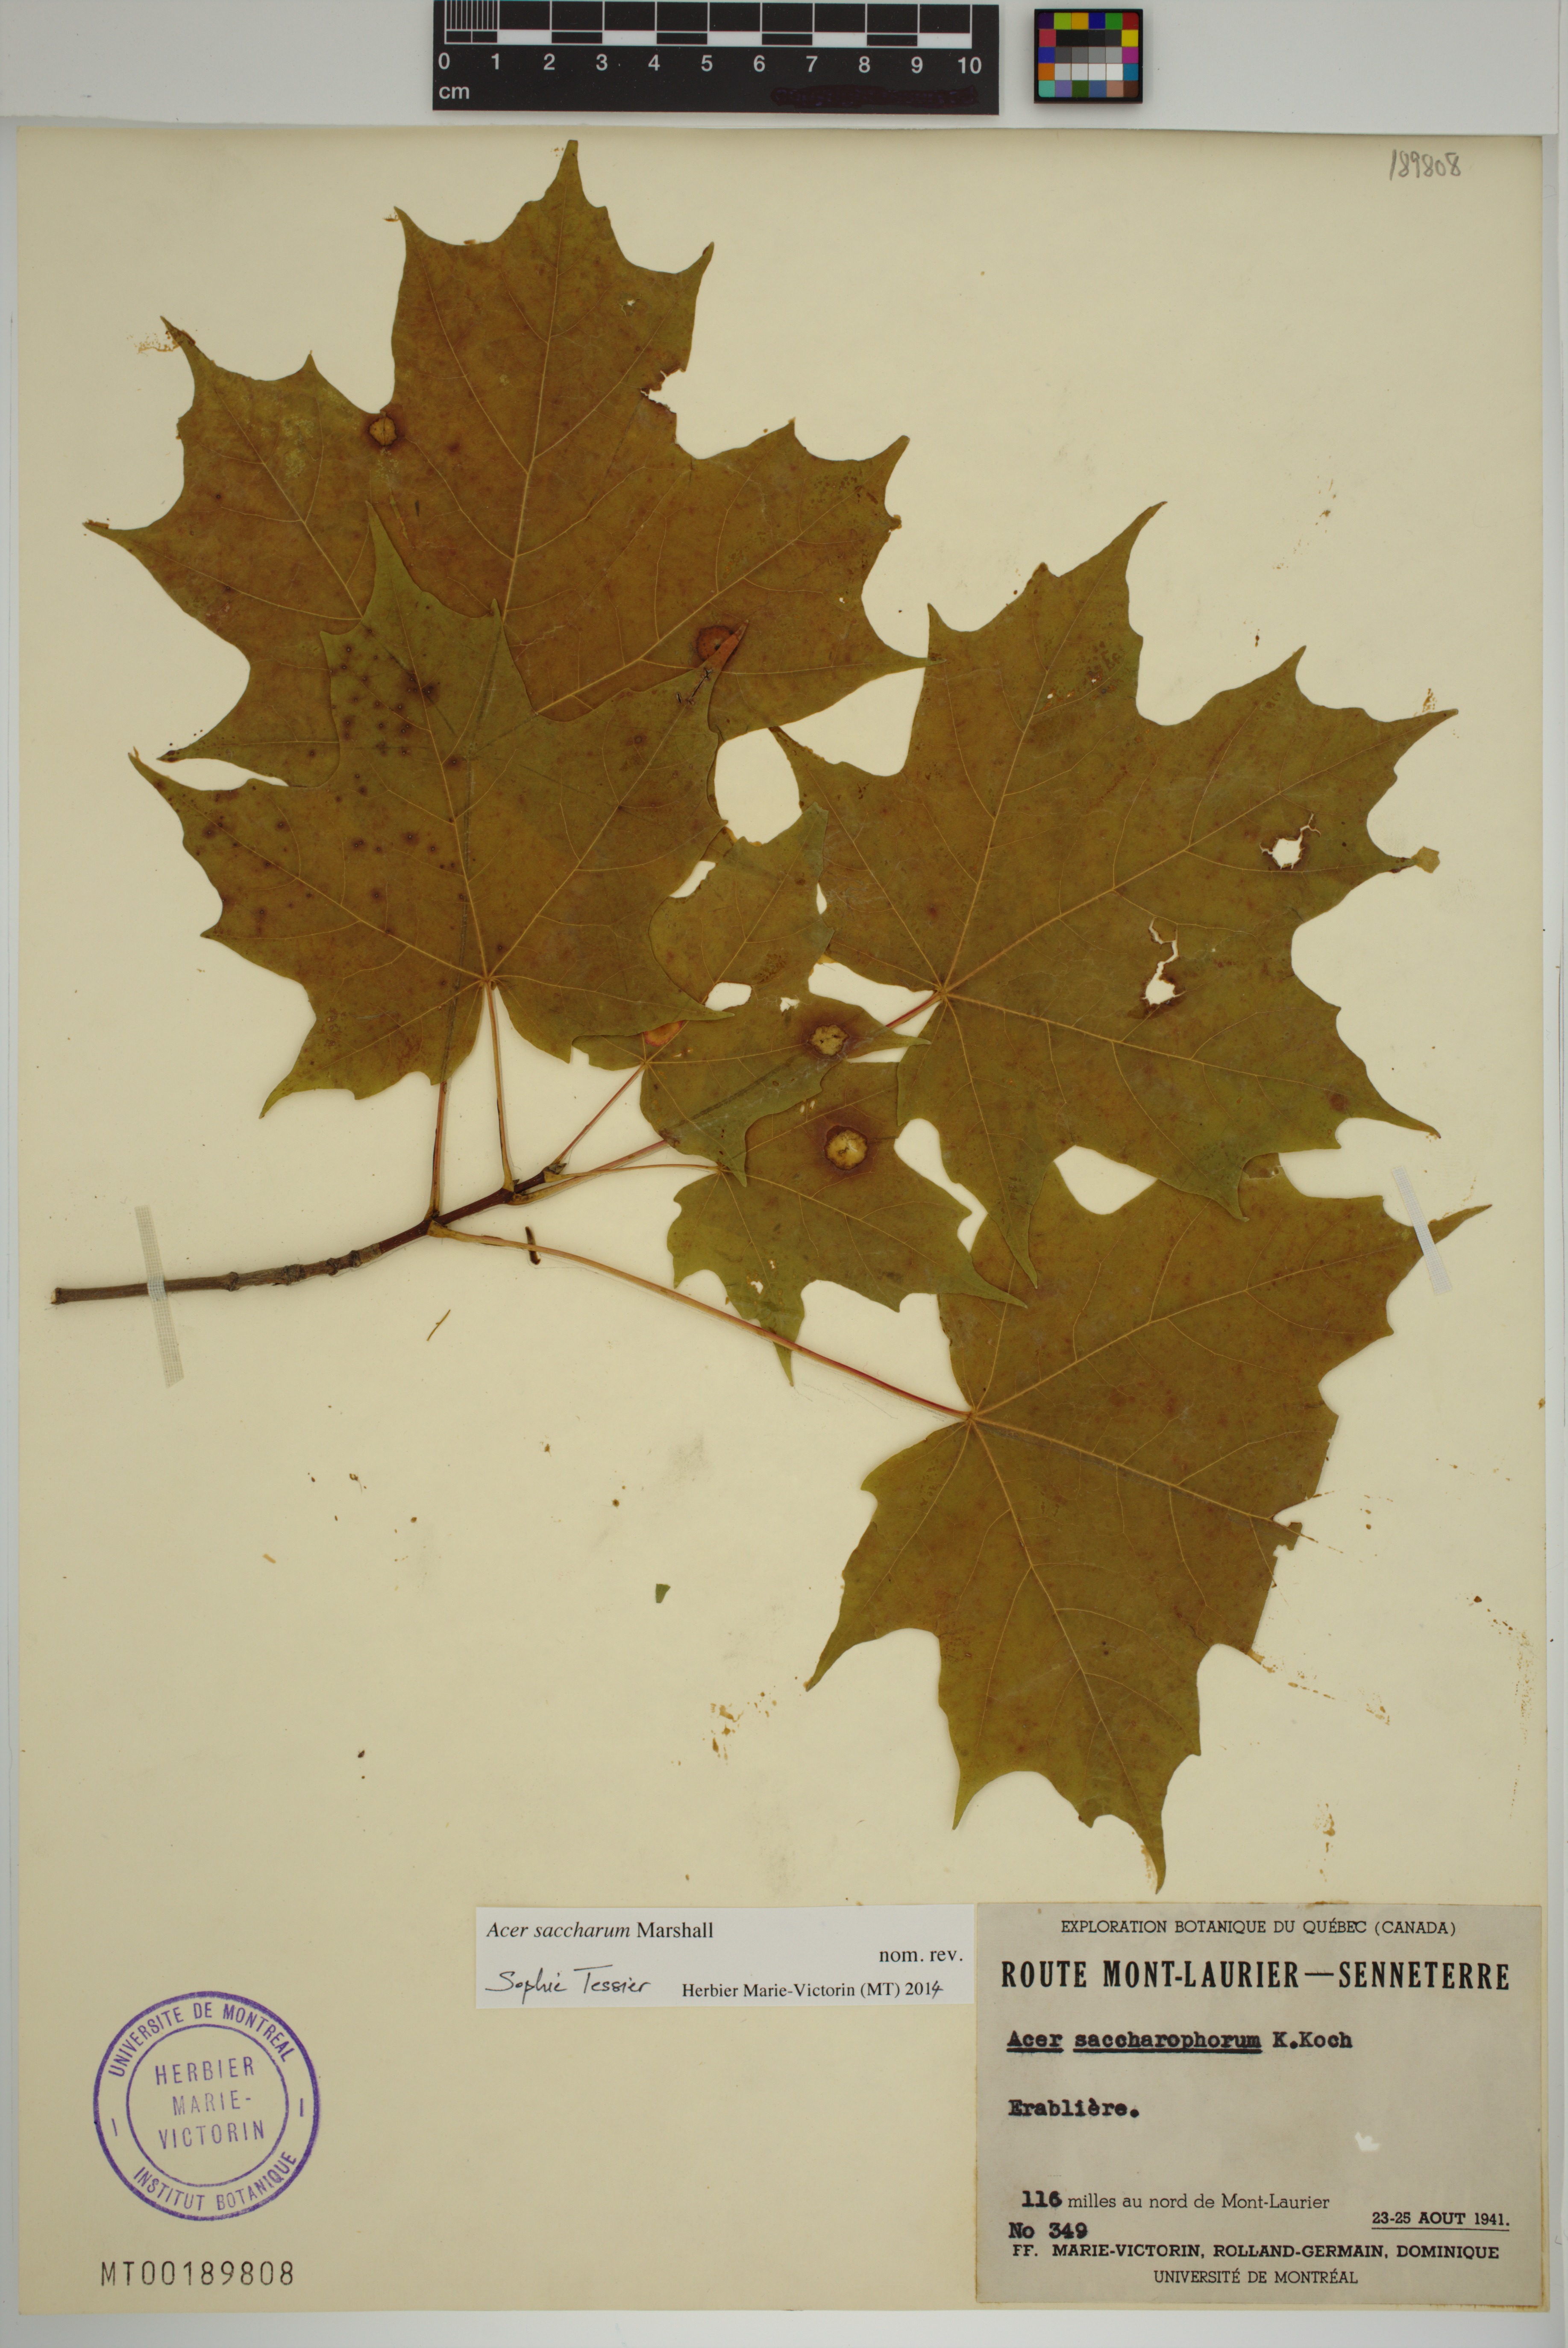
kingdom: Plantae
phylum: Tracheophyta
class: Magnoliopsida
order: Sapindales
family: Sapindaceae
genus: Acer
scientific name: Acer saccharum
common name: Sugar maple
